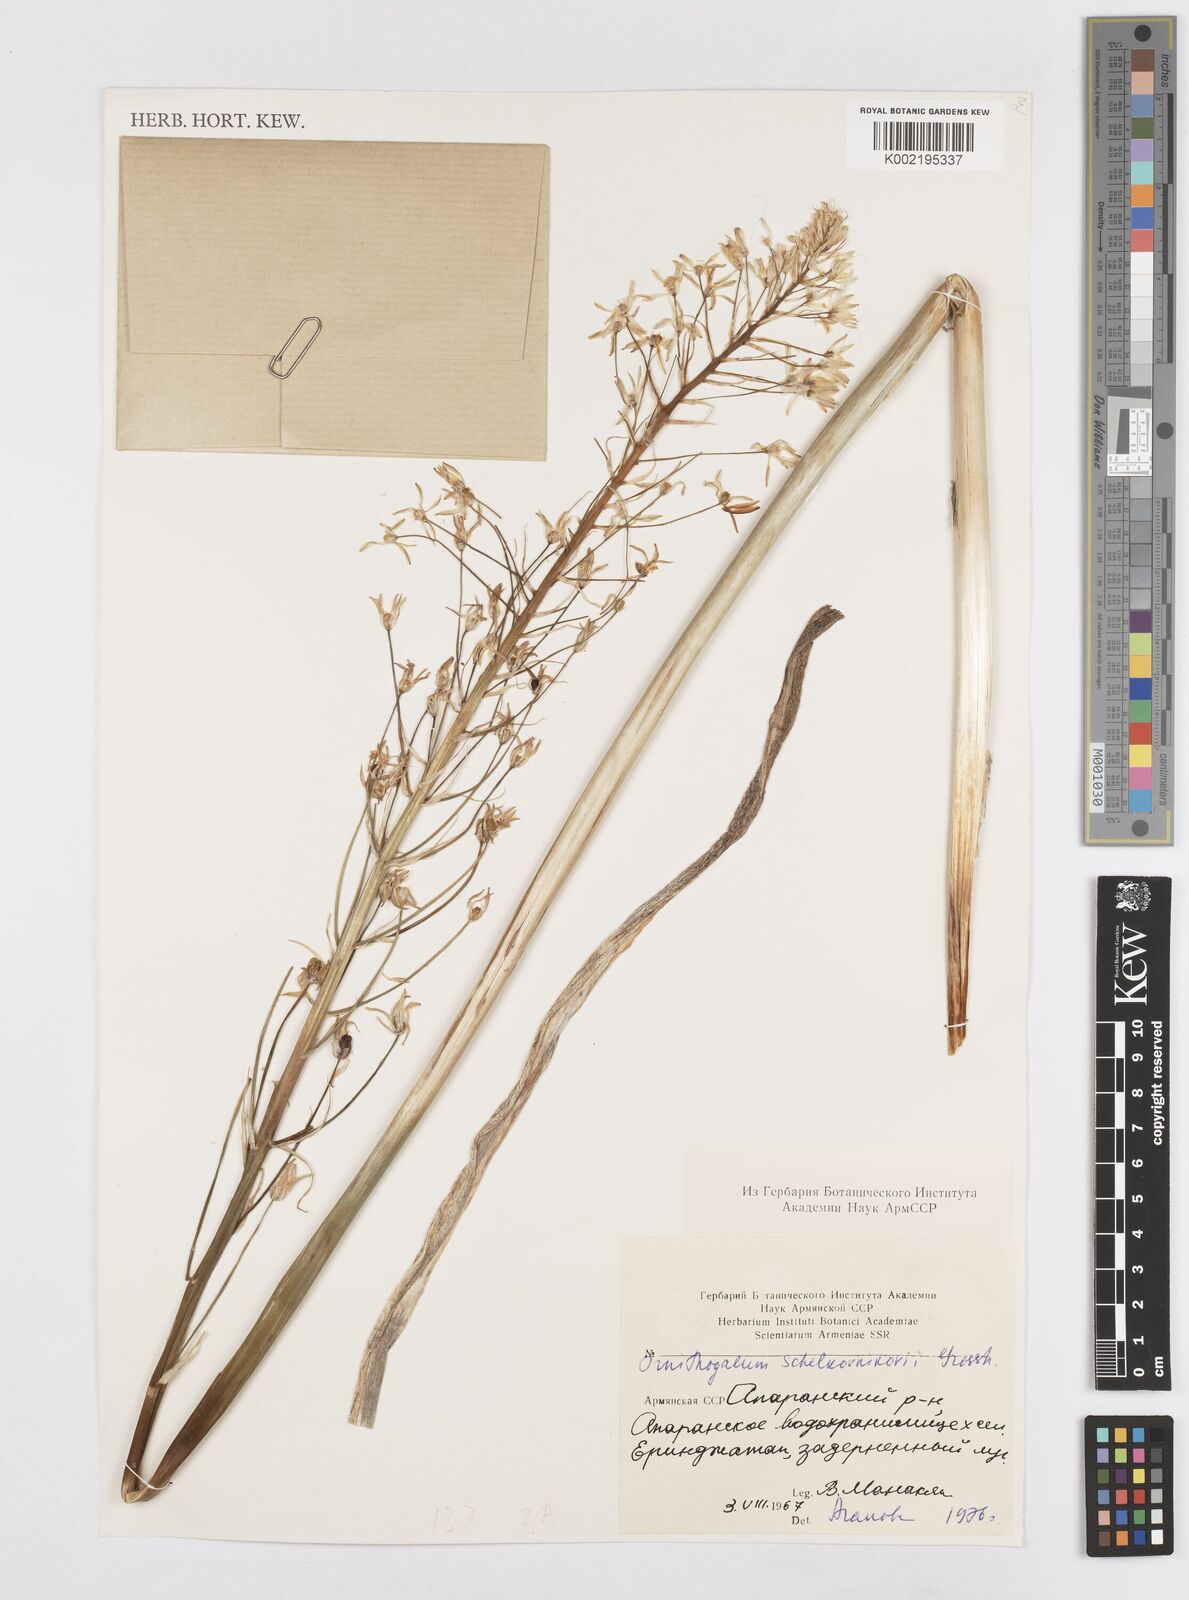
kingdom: Plantae
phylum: Tracheophyta
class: Liliopsida
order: Asparagales
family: Asparagaceae
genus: Ornithogalum
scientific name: Ornithogalum arcuatum
